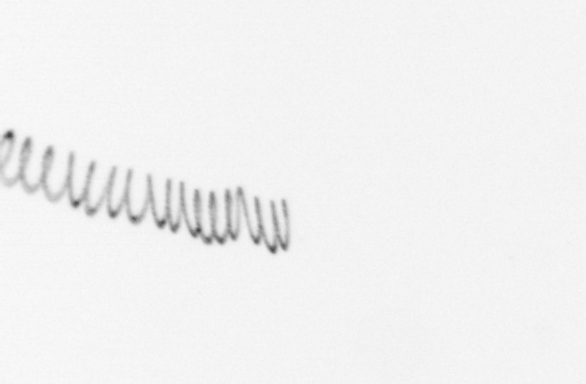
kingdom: Chromista
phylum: Ochrophyta
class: Bacillariophyceae
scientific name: Bacillariophyceae
